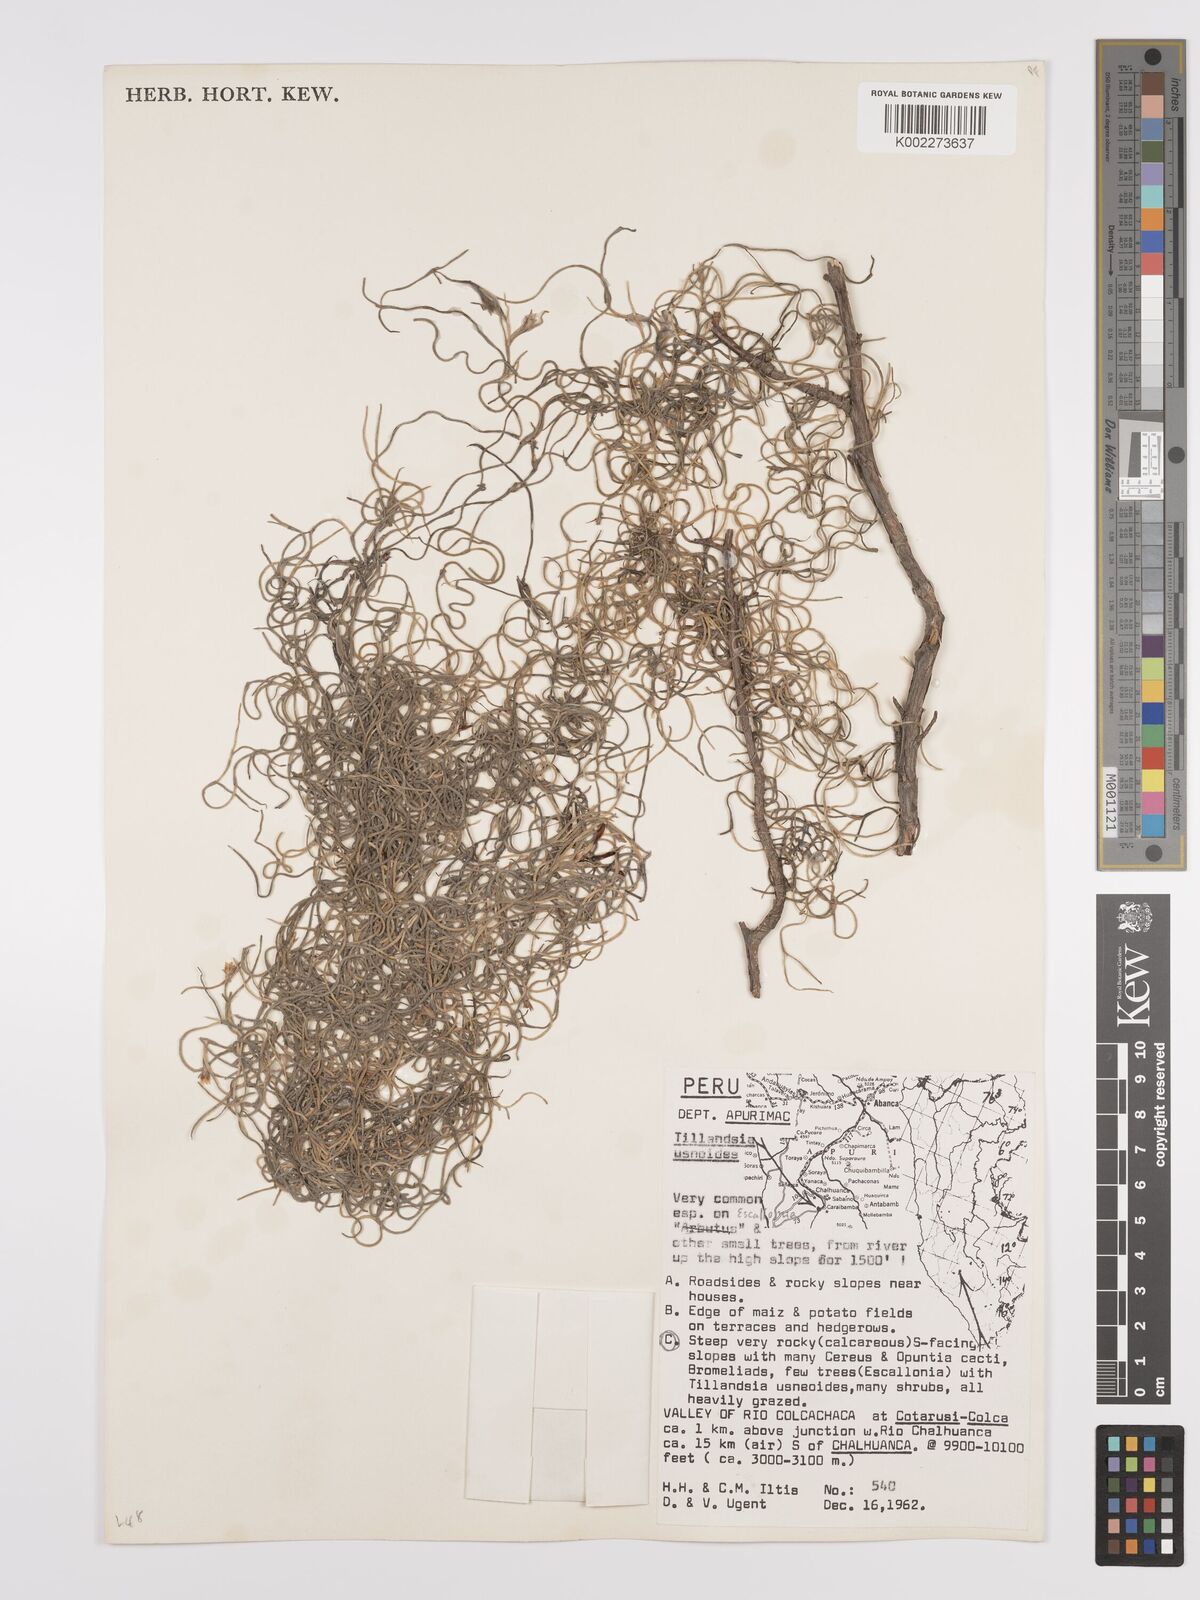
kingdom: Plantae
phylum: Tracheophyta
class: Liliopsida
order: Poales
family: Bromeliaceae
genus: Tillandsia
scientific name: Tillandsia usneoides
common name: Spanish moss
